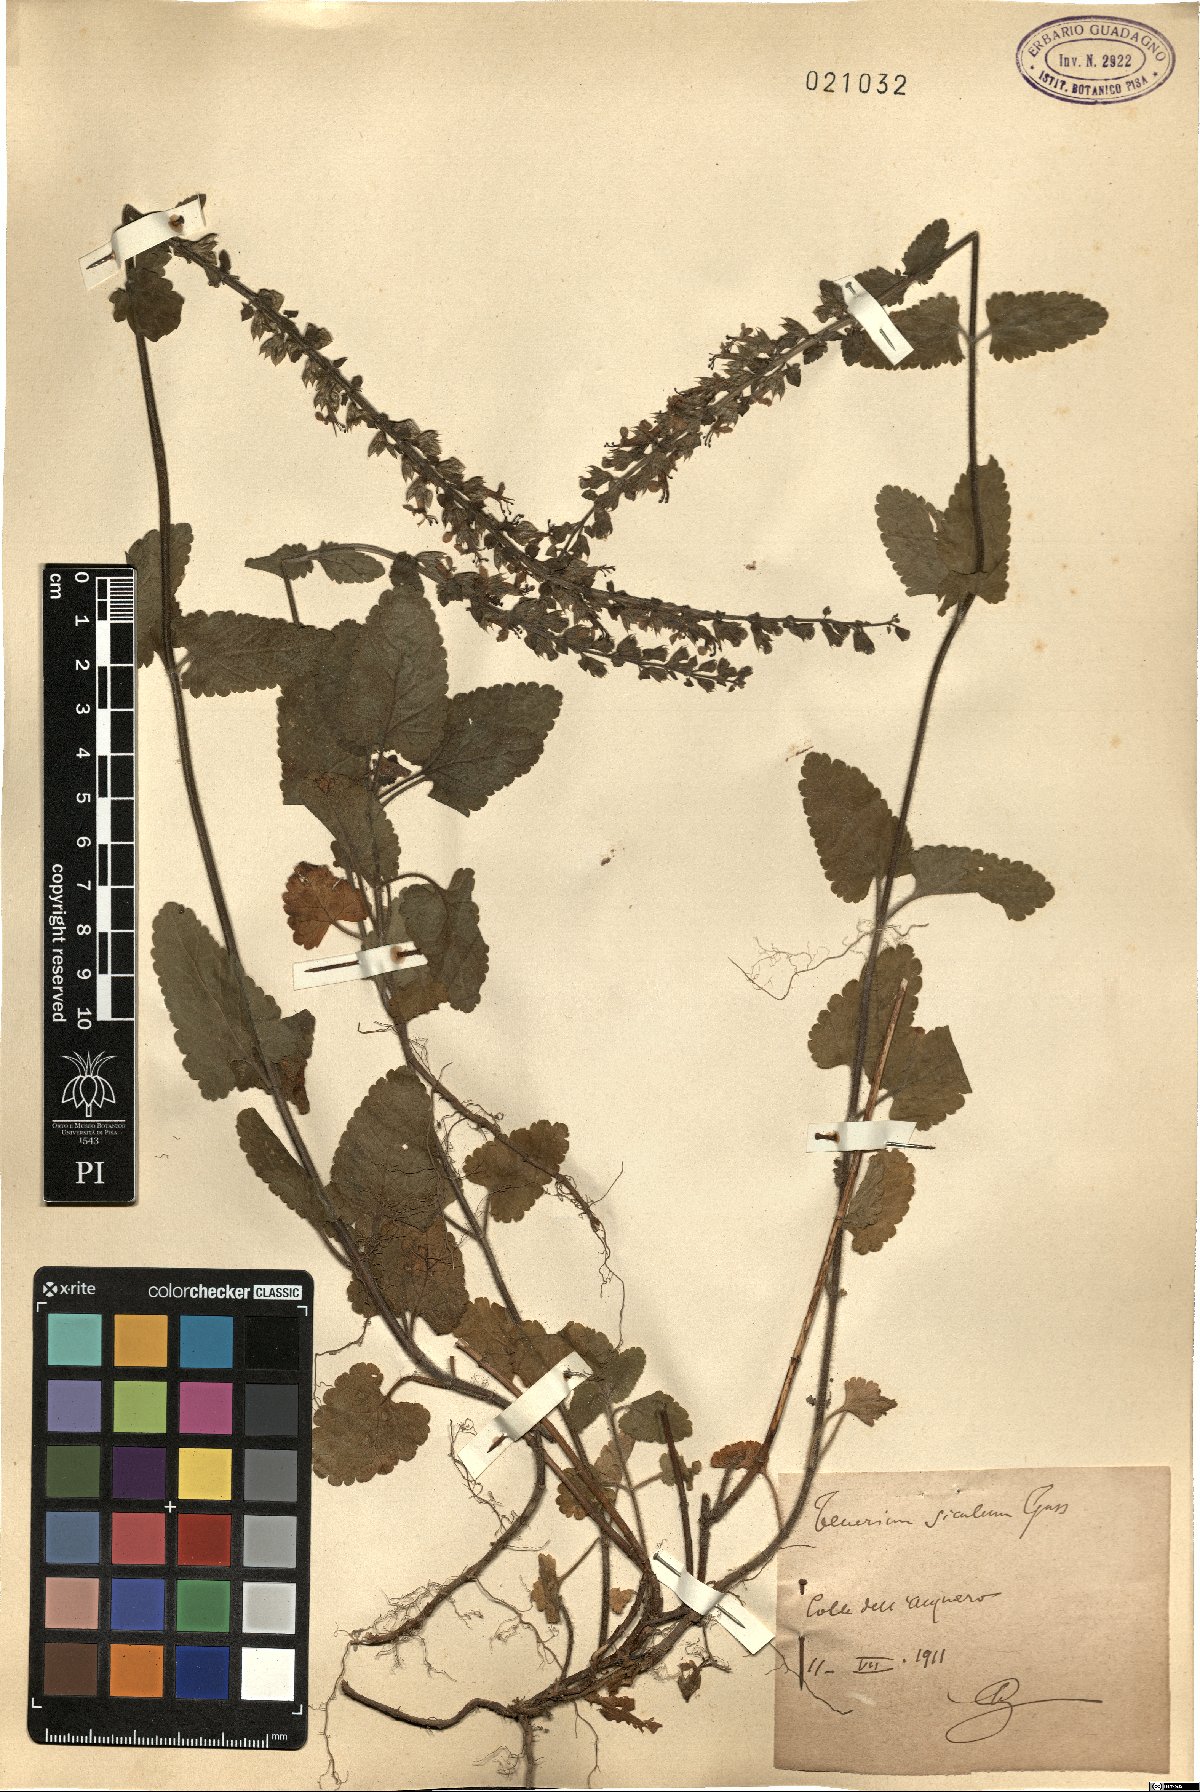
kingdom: Plantae
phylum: Tracheophyta
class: Magnoliopsida
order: Lamiales
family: Lamiaceae
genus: Teucrium
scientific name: Teucrium siculum
